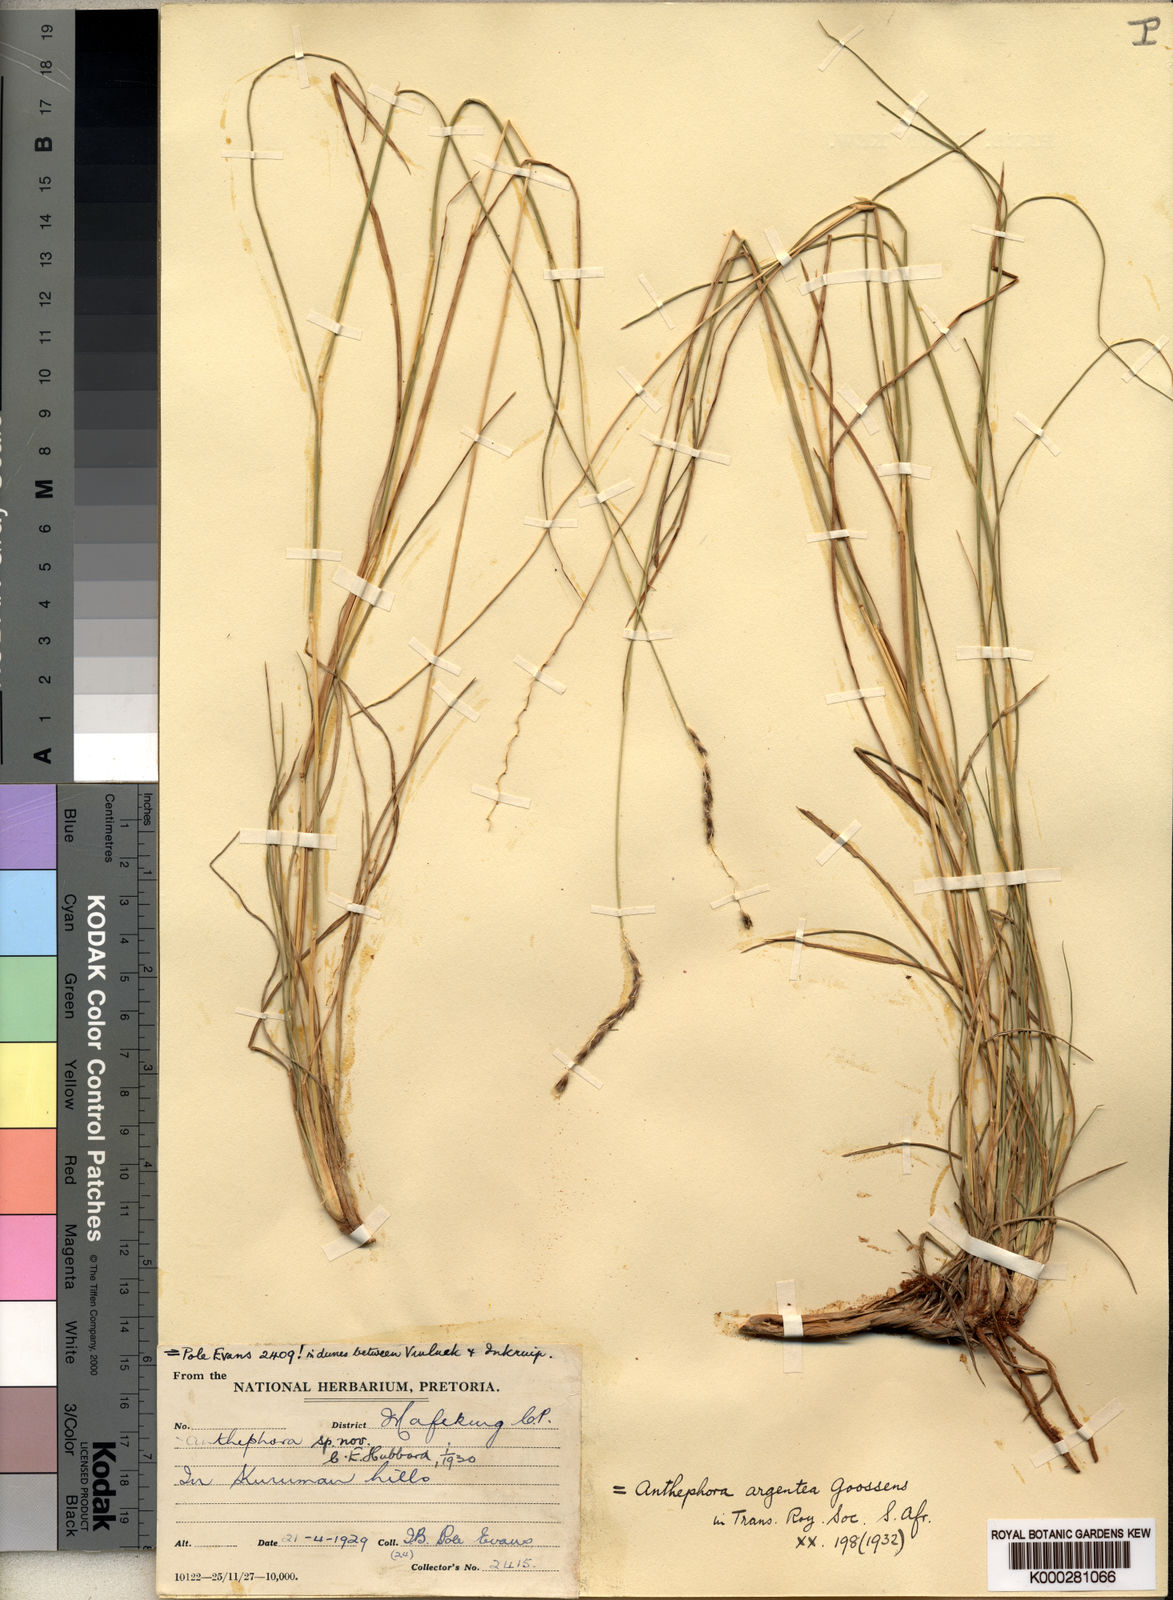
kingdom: Plantae
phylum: Tracheophyta
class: Liliopsida
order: Poales
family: Poaceae
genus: Anthephora
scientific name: Anthephora
